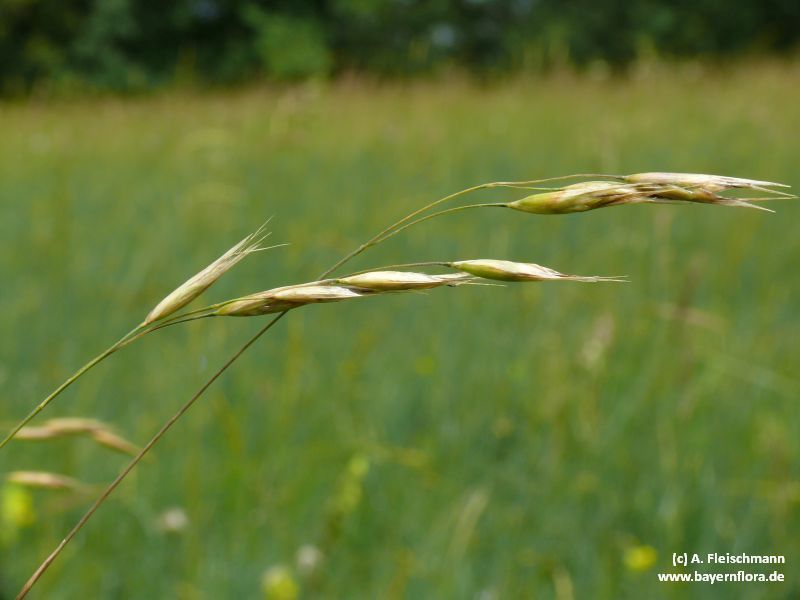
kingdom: Plantae
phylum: Tracheophyta
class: Liliopsida
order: Poales
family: Poaceae
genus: Danthonia
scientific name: Danthonia alpina
